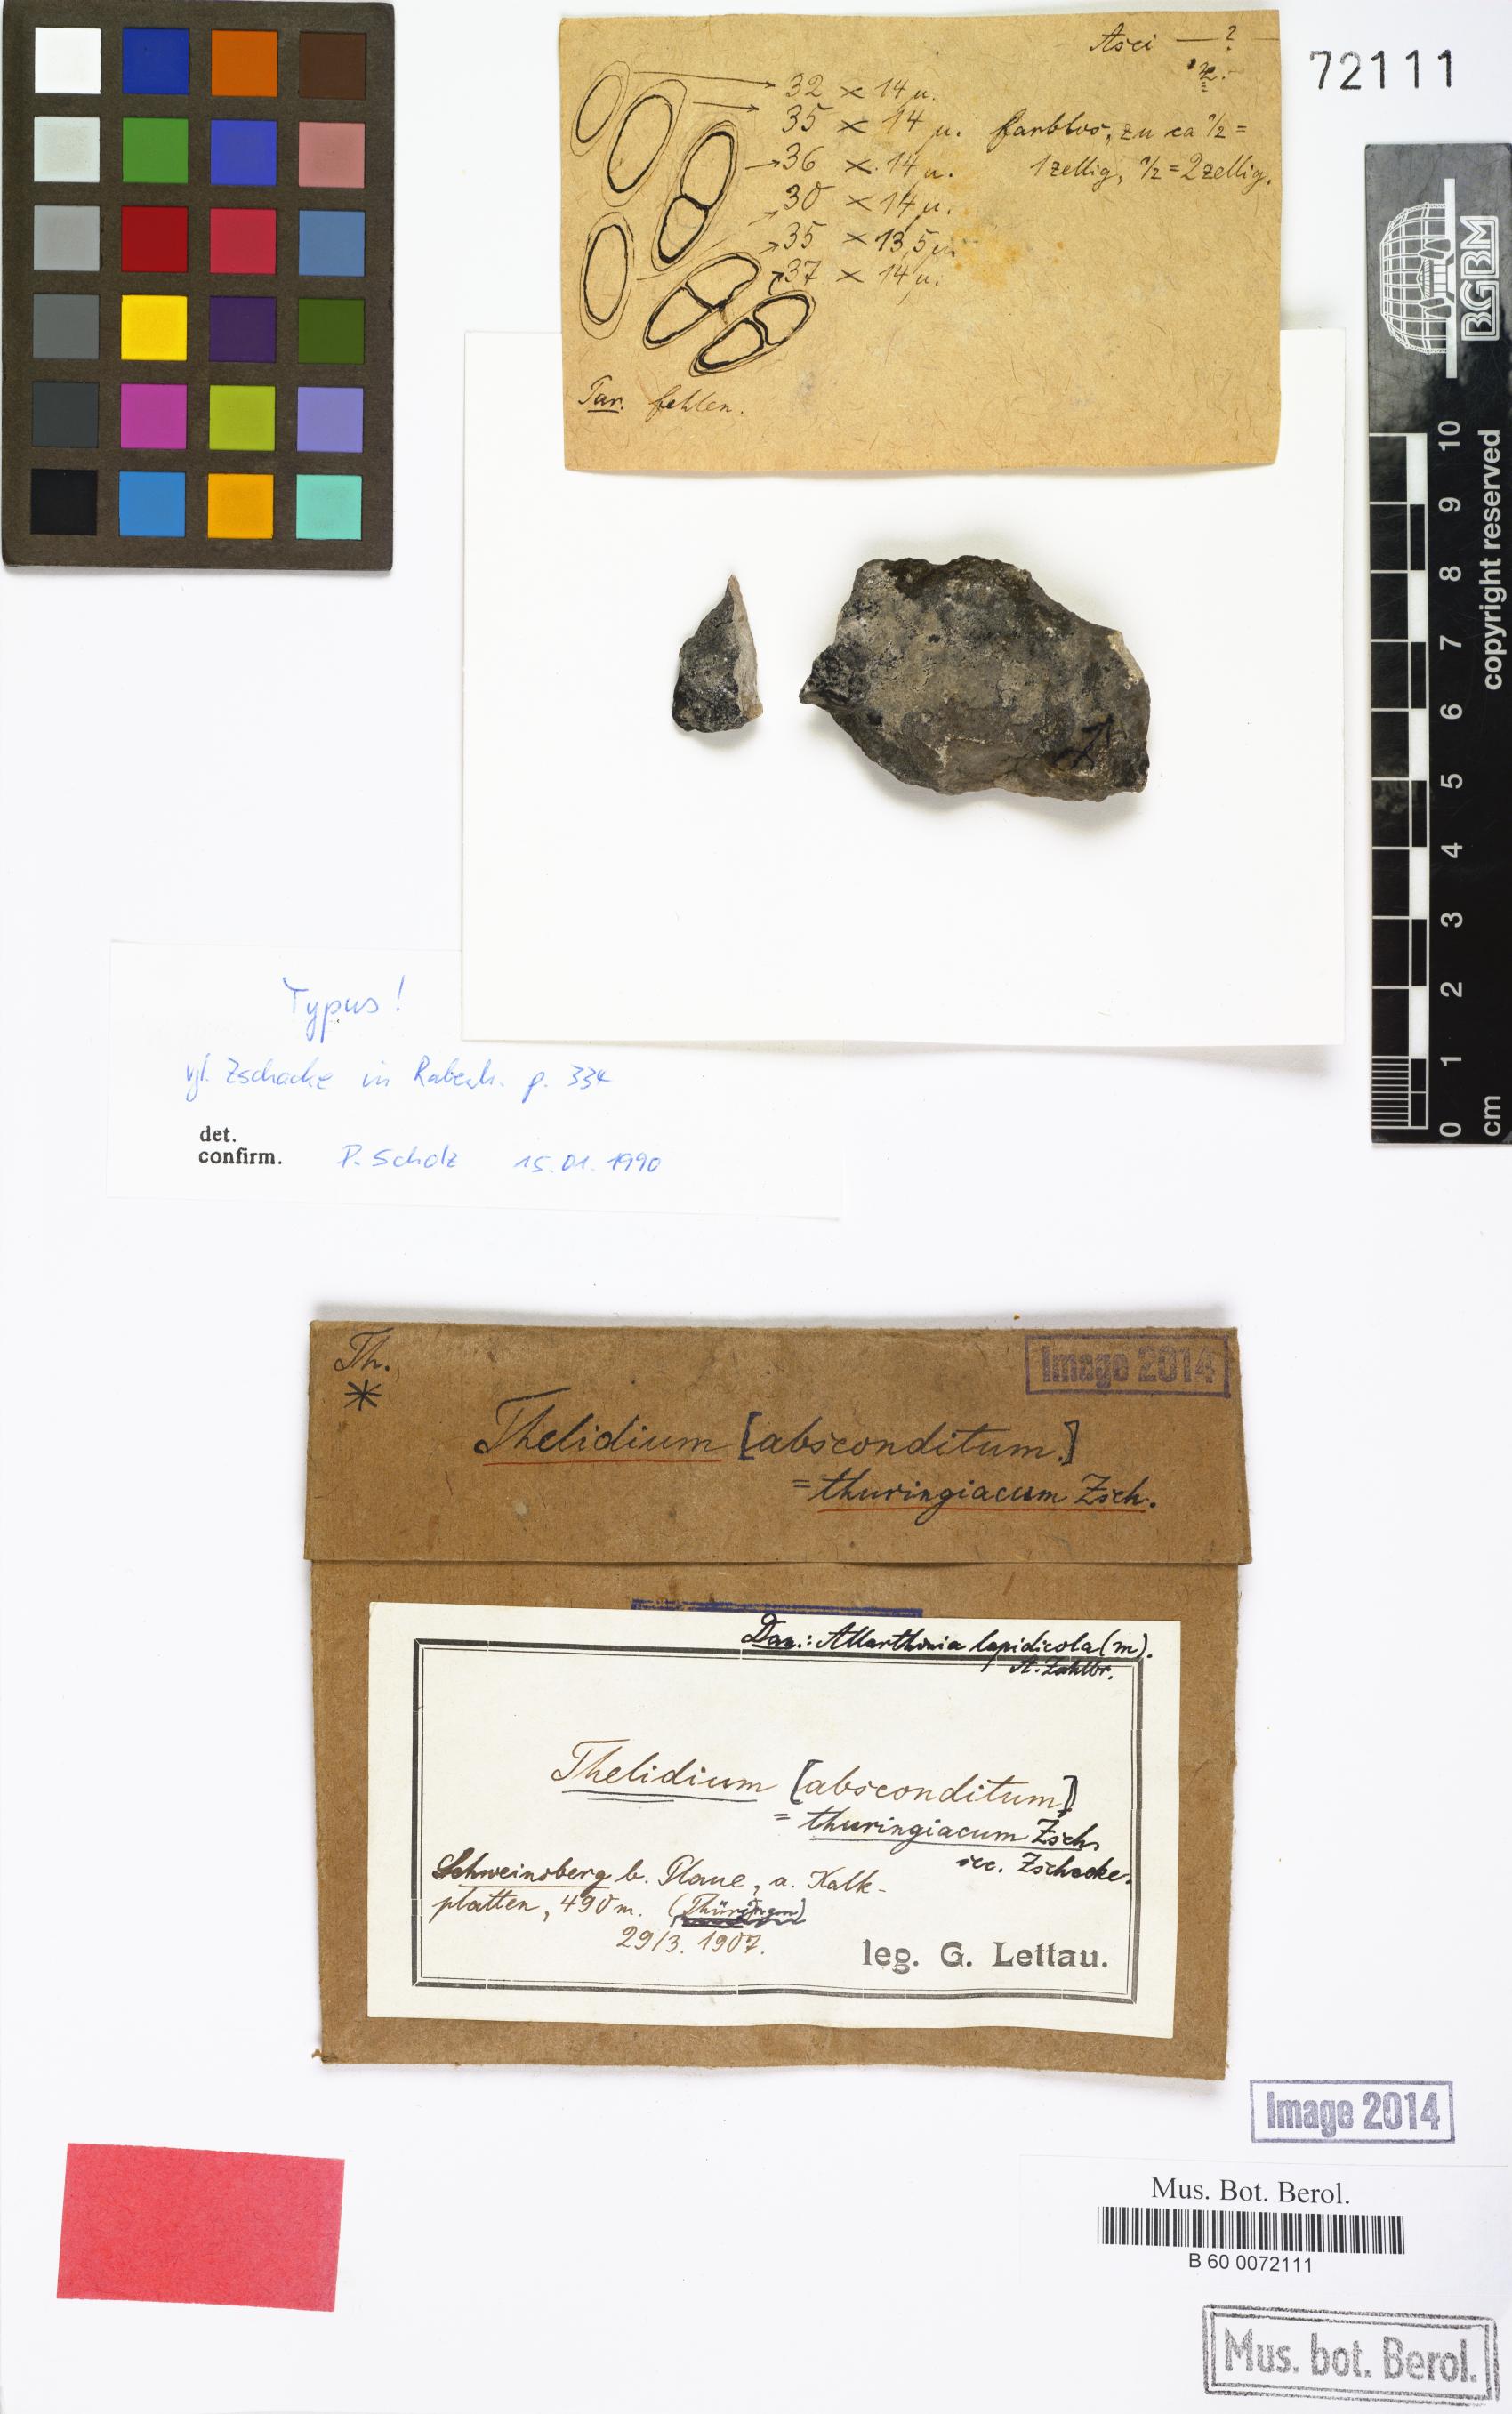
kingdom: Fungi
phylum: Ascomycota
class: Eurotiomycetes
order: Verrucariales
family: Verrucariaceae
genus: Thelidium
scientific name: Thelidium decipiens
